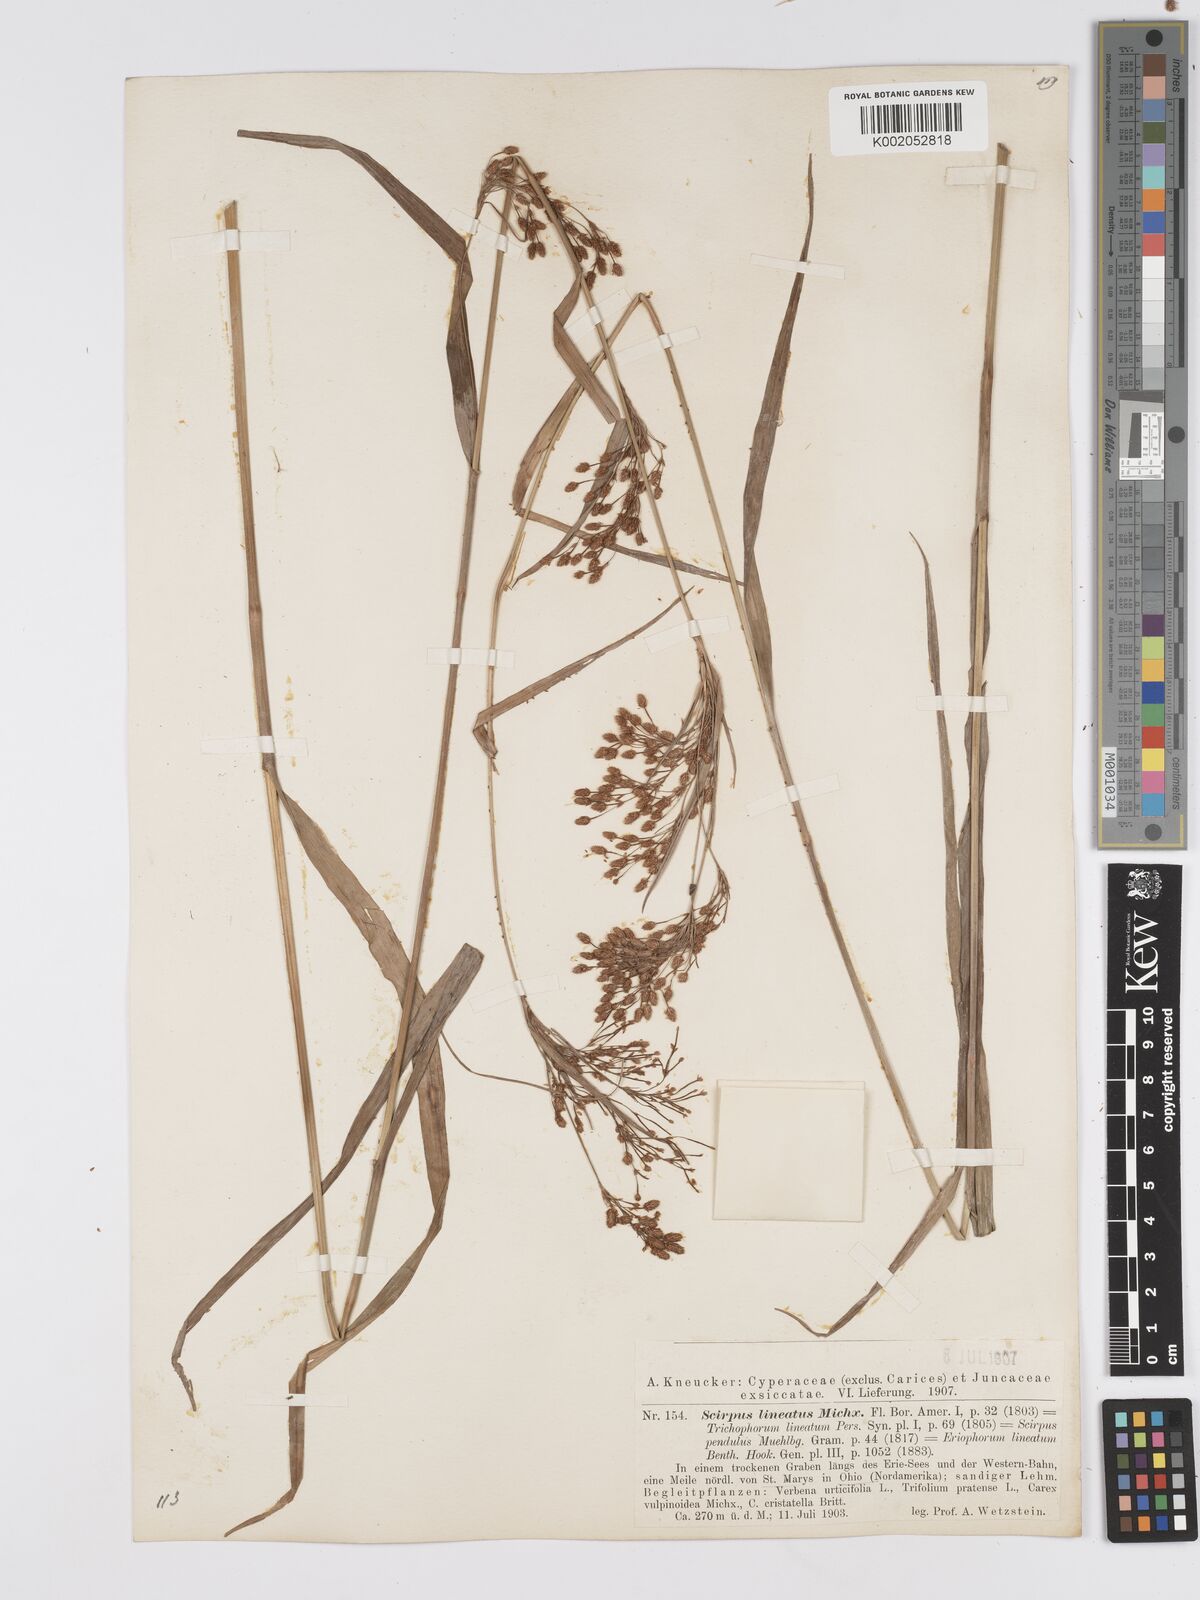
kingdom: Plantae
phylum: Tracheophyta
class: Liliopsida
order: Poales
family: Cyperaceae
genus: Scirpus
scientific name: Scirpus lineatus
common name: Drooping bulrush
